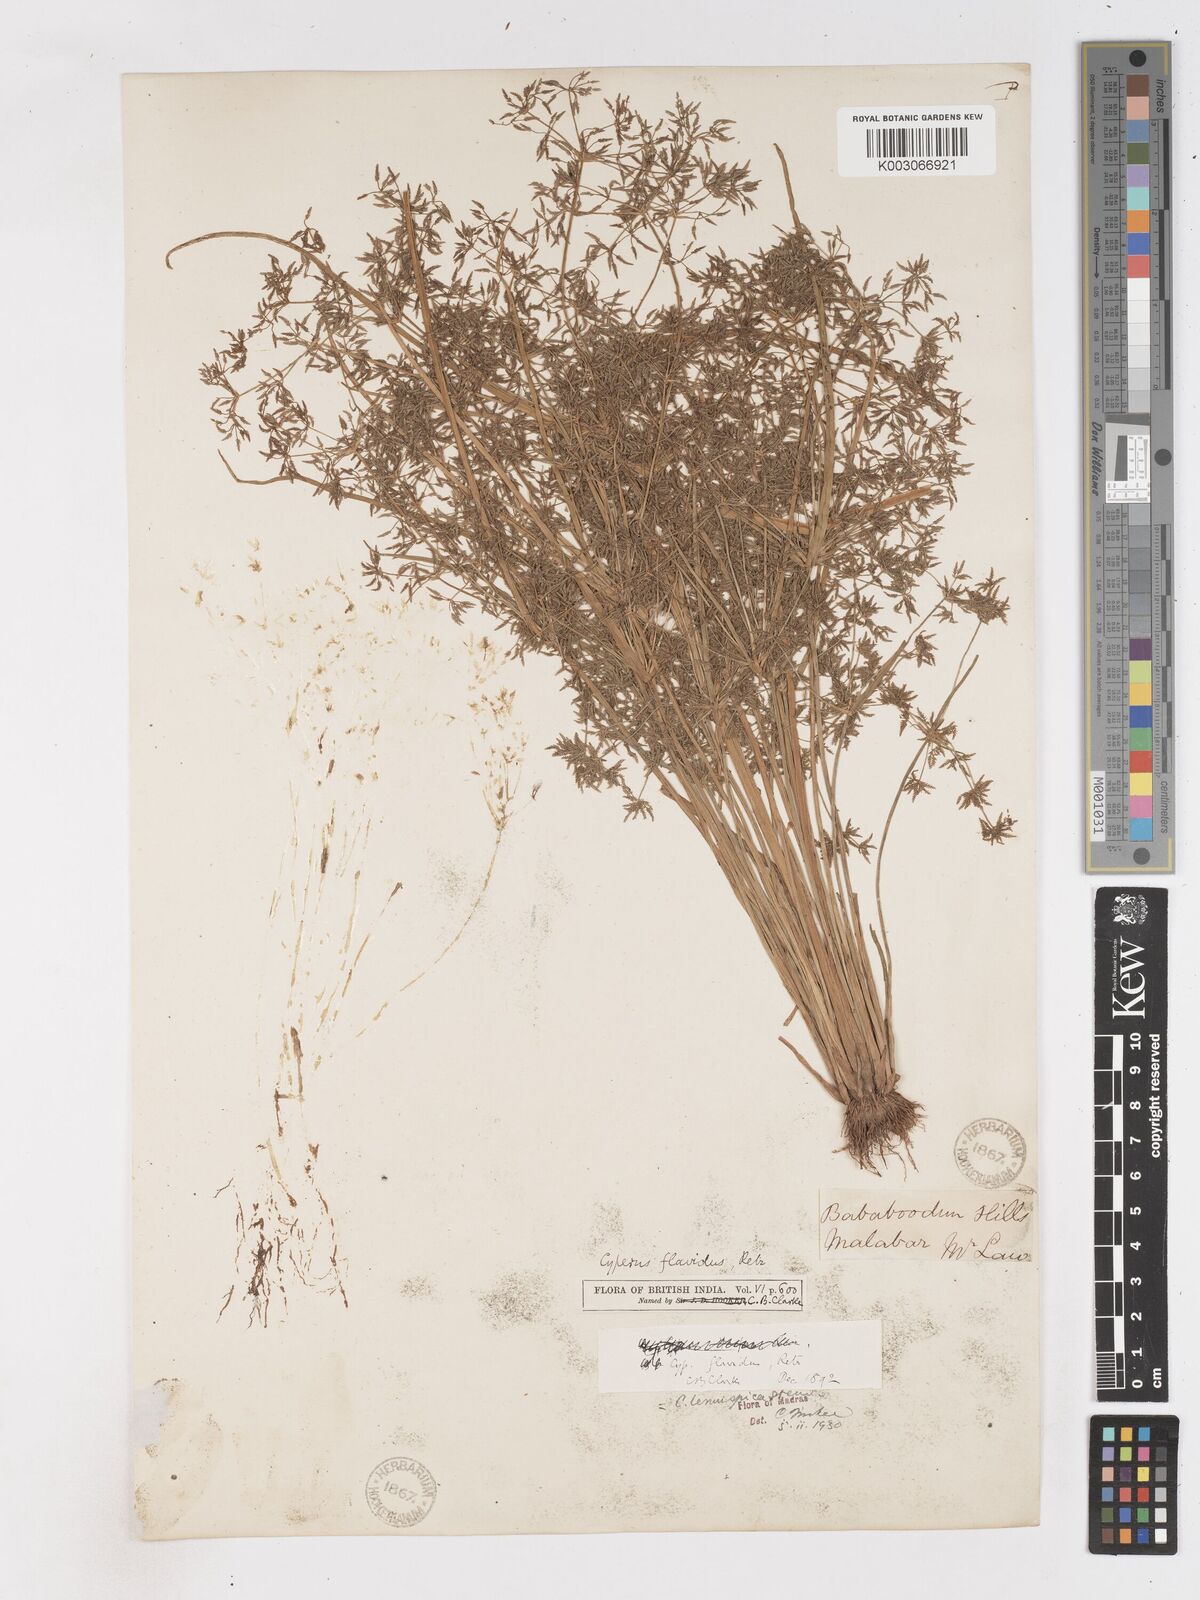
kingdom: Plantae
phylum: Tracheophyta
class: Liliopsida
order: Poales
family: Cyperaceae
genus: Cyperus
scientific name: Cyperus tenuispica
